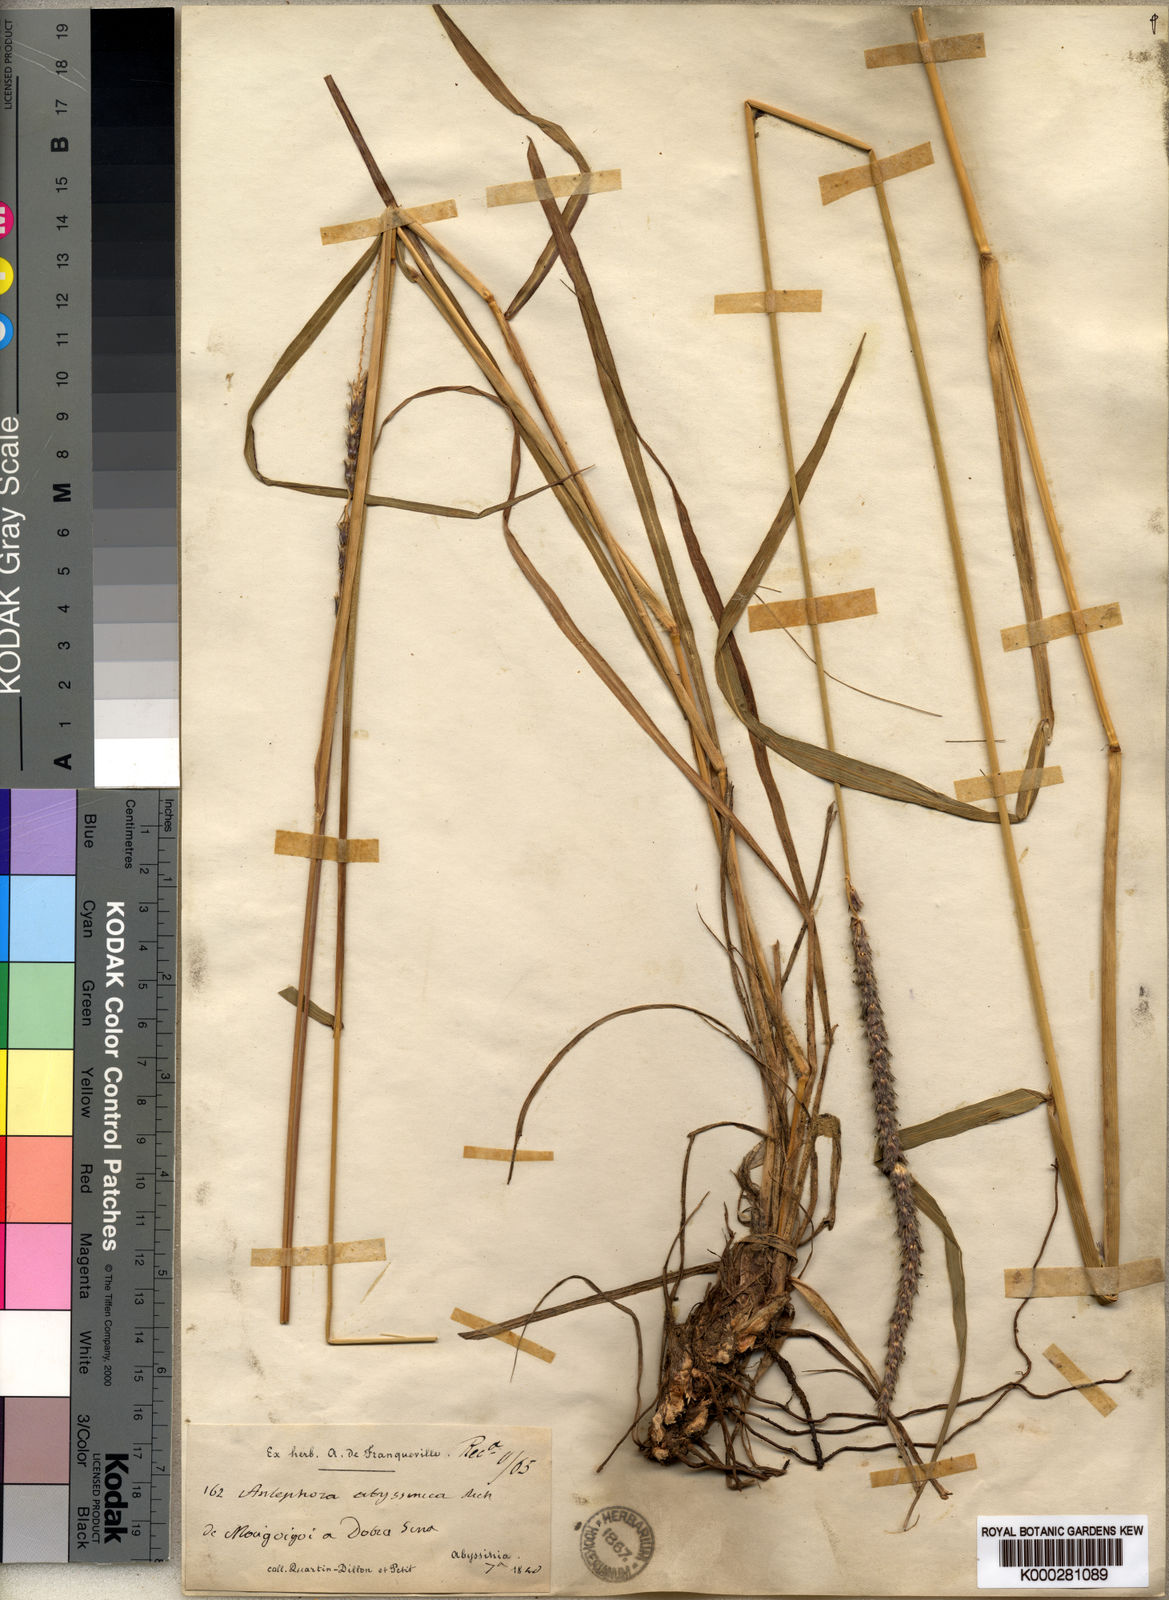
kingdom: Plantae
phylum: Tracheophyta
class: Liliopsida
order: Poales
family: Poaceae
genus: Anthephora
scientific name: Anthephora pubescens
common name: Wool grass
